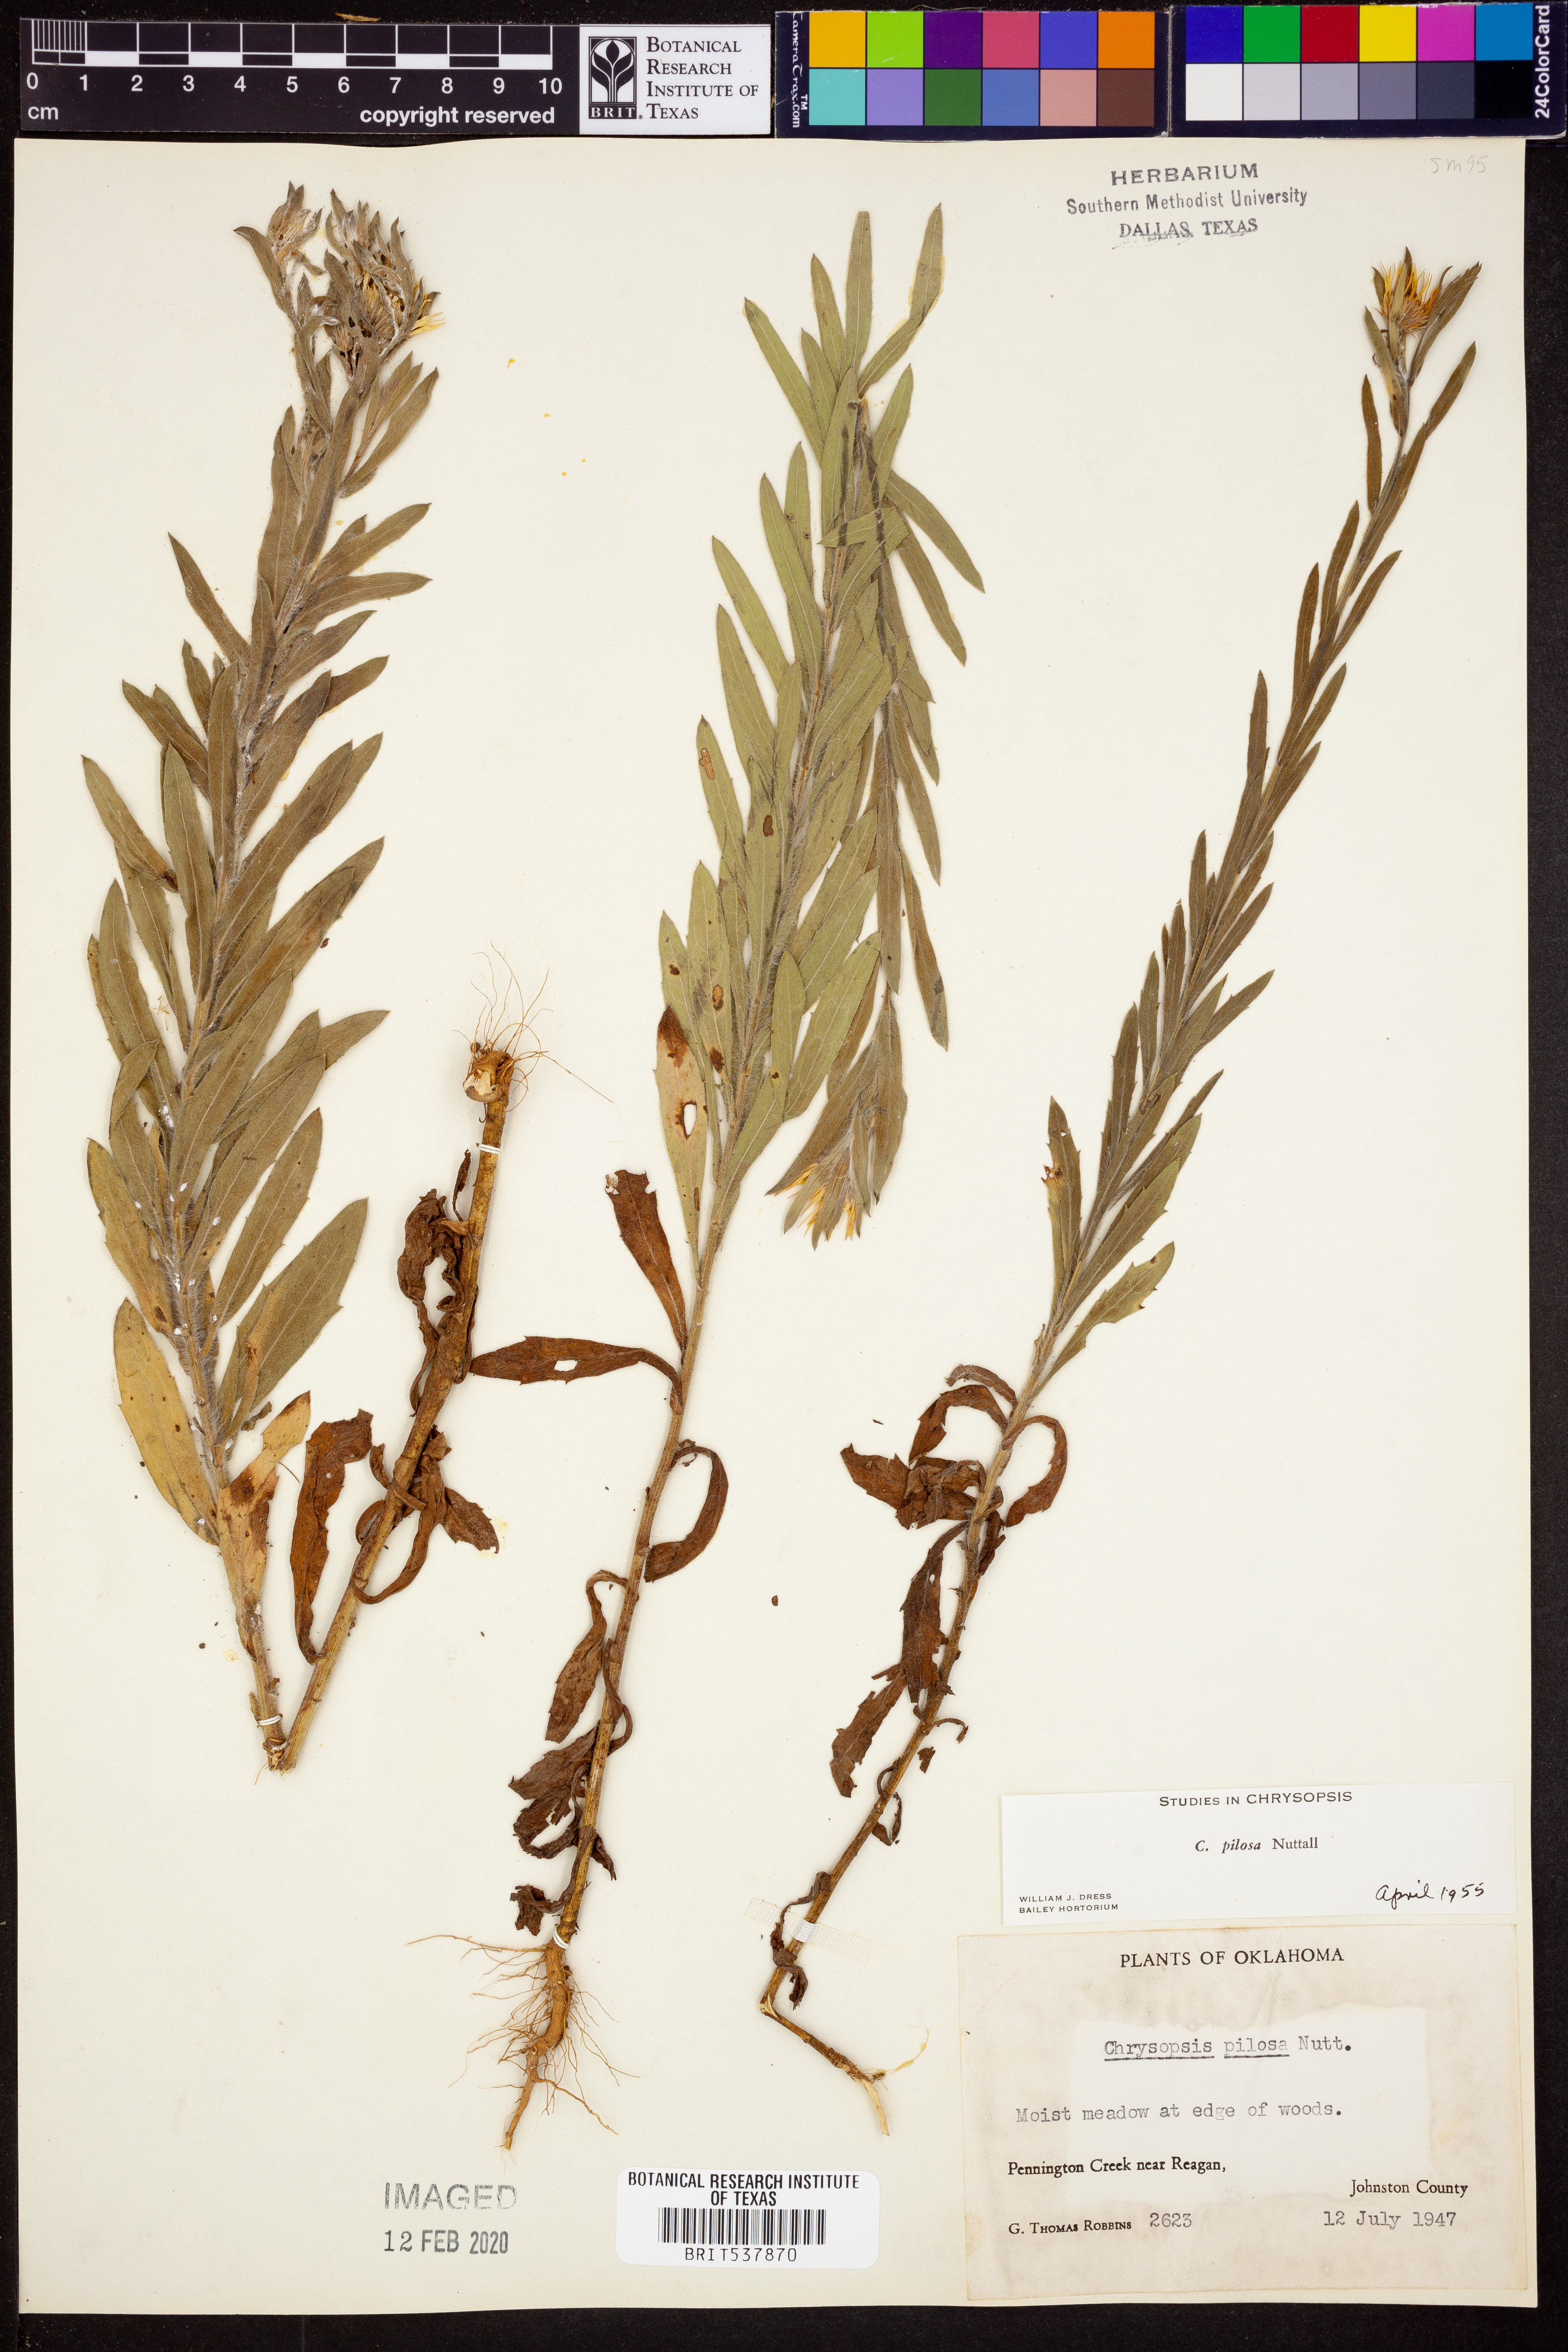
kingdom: Plantae
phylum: Tracheophyta
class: Magnoliopsida
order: Asterales
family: Asteraceae
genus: Bradburia
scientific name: Bradburia pilosa
